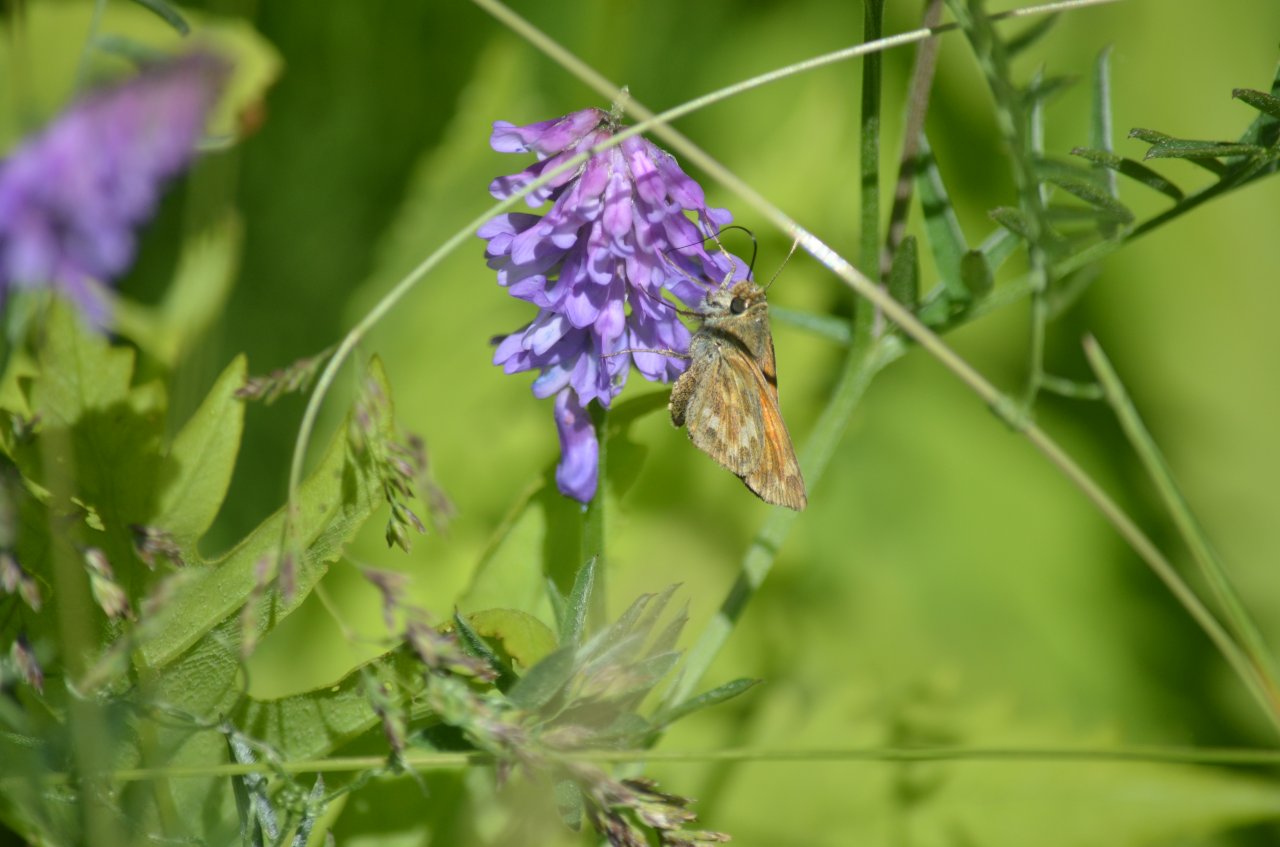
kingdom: Animalia
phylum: Arthropoda
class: Insecta
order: Lepidoptera
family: Hesperiidae
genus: Hesperia
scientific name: Hesperia sassacus
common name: Sassacus Skipper
